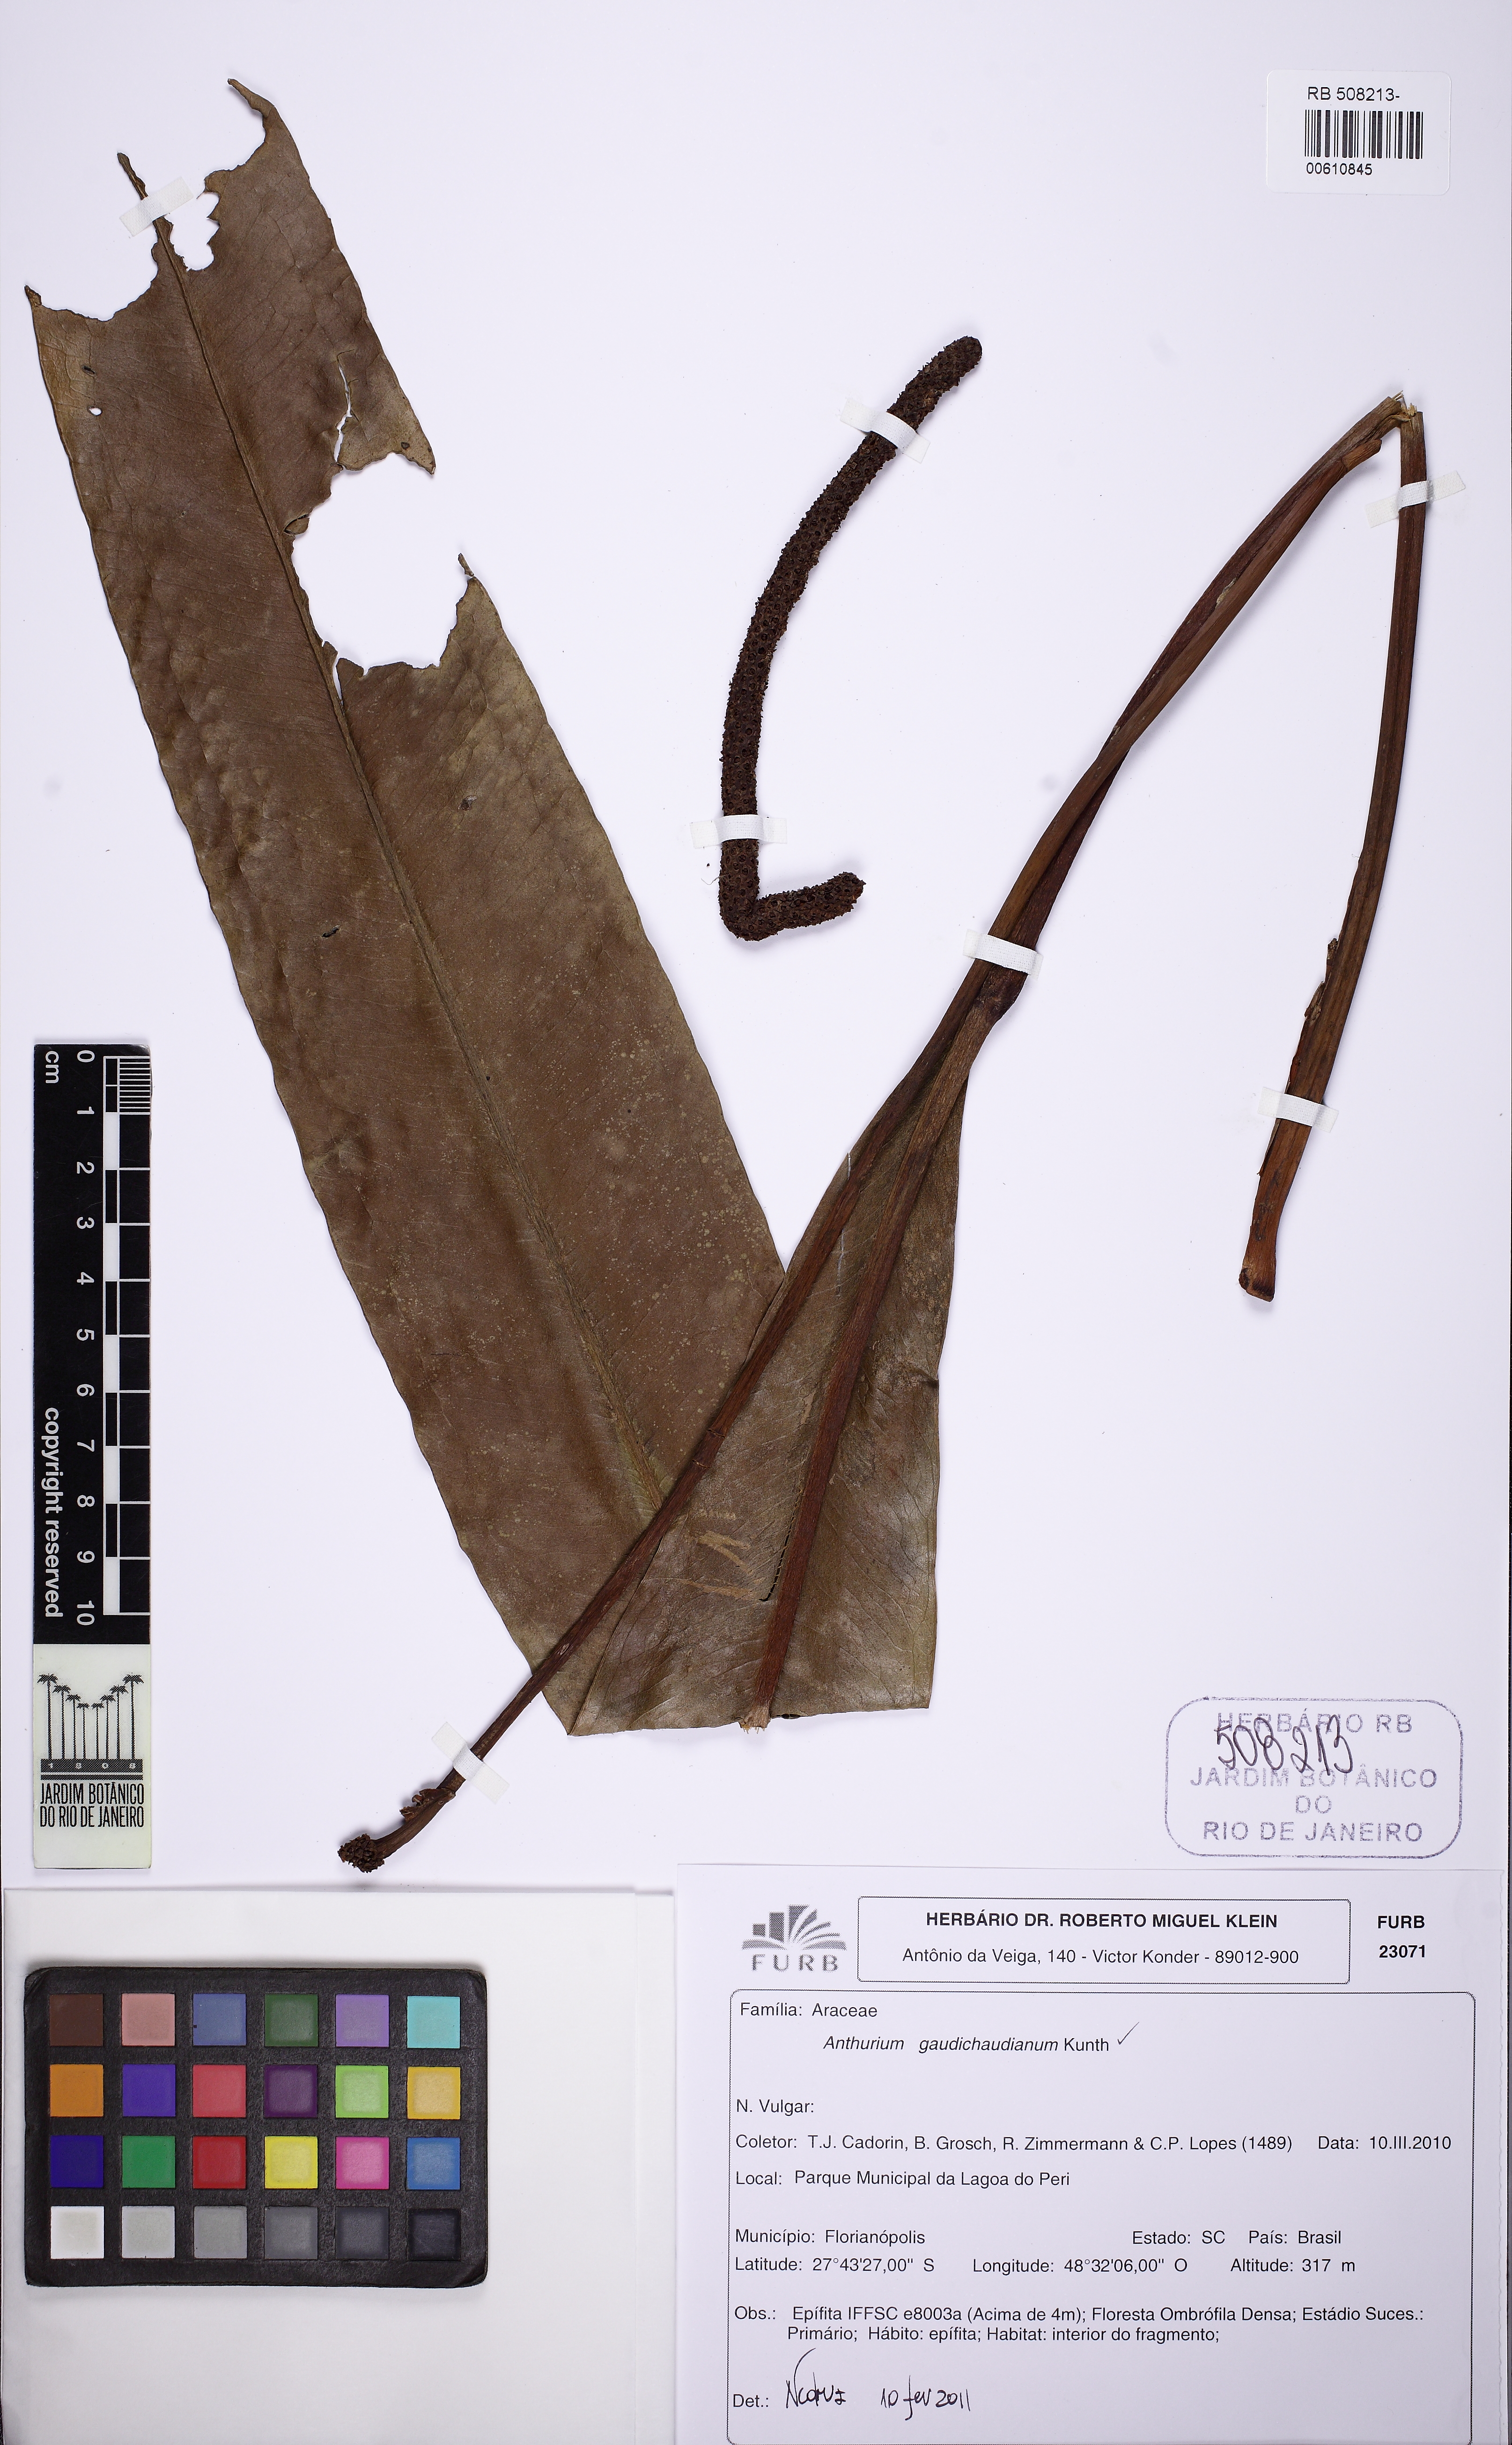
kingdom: Plantae
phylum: Tracheophyta
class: Liliopsida
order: Alismatales
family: Araceae
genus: Anthurium
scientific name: Anthurium gaudichaudianum
